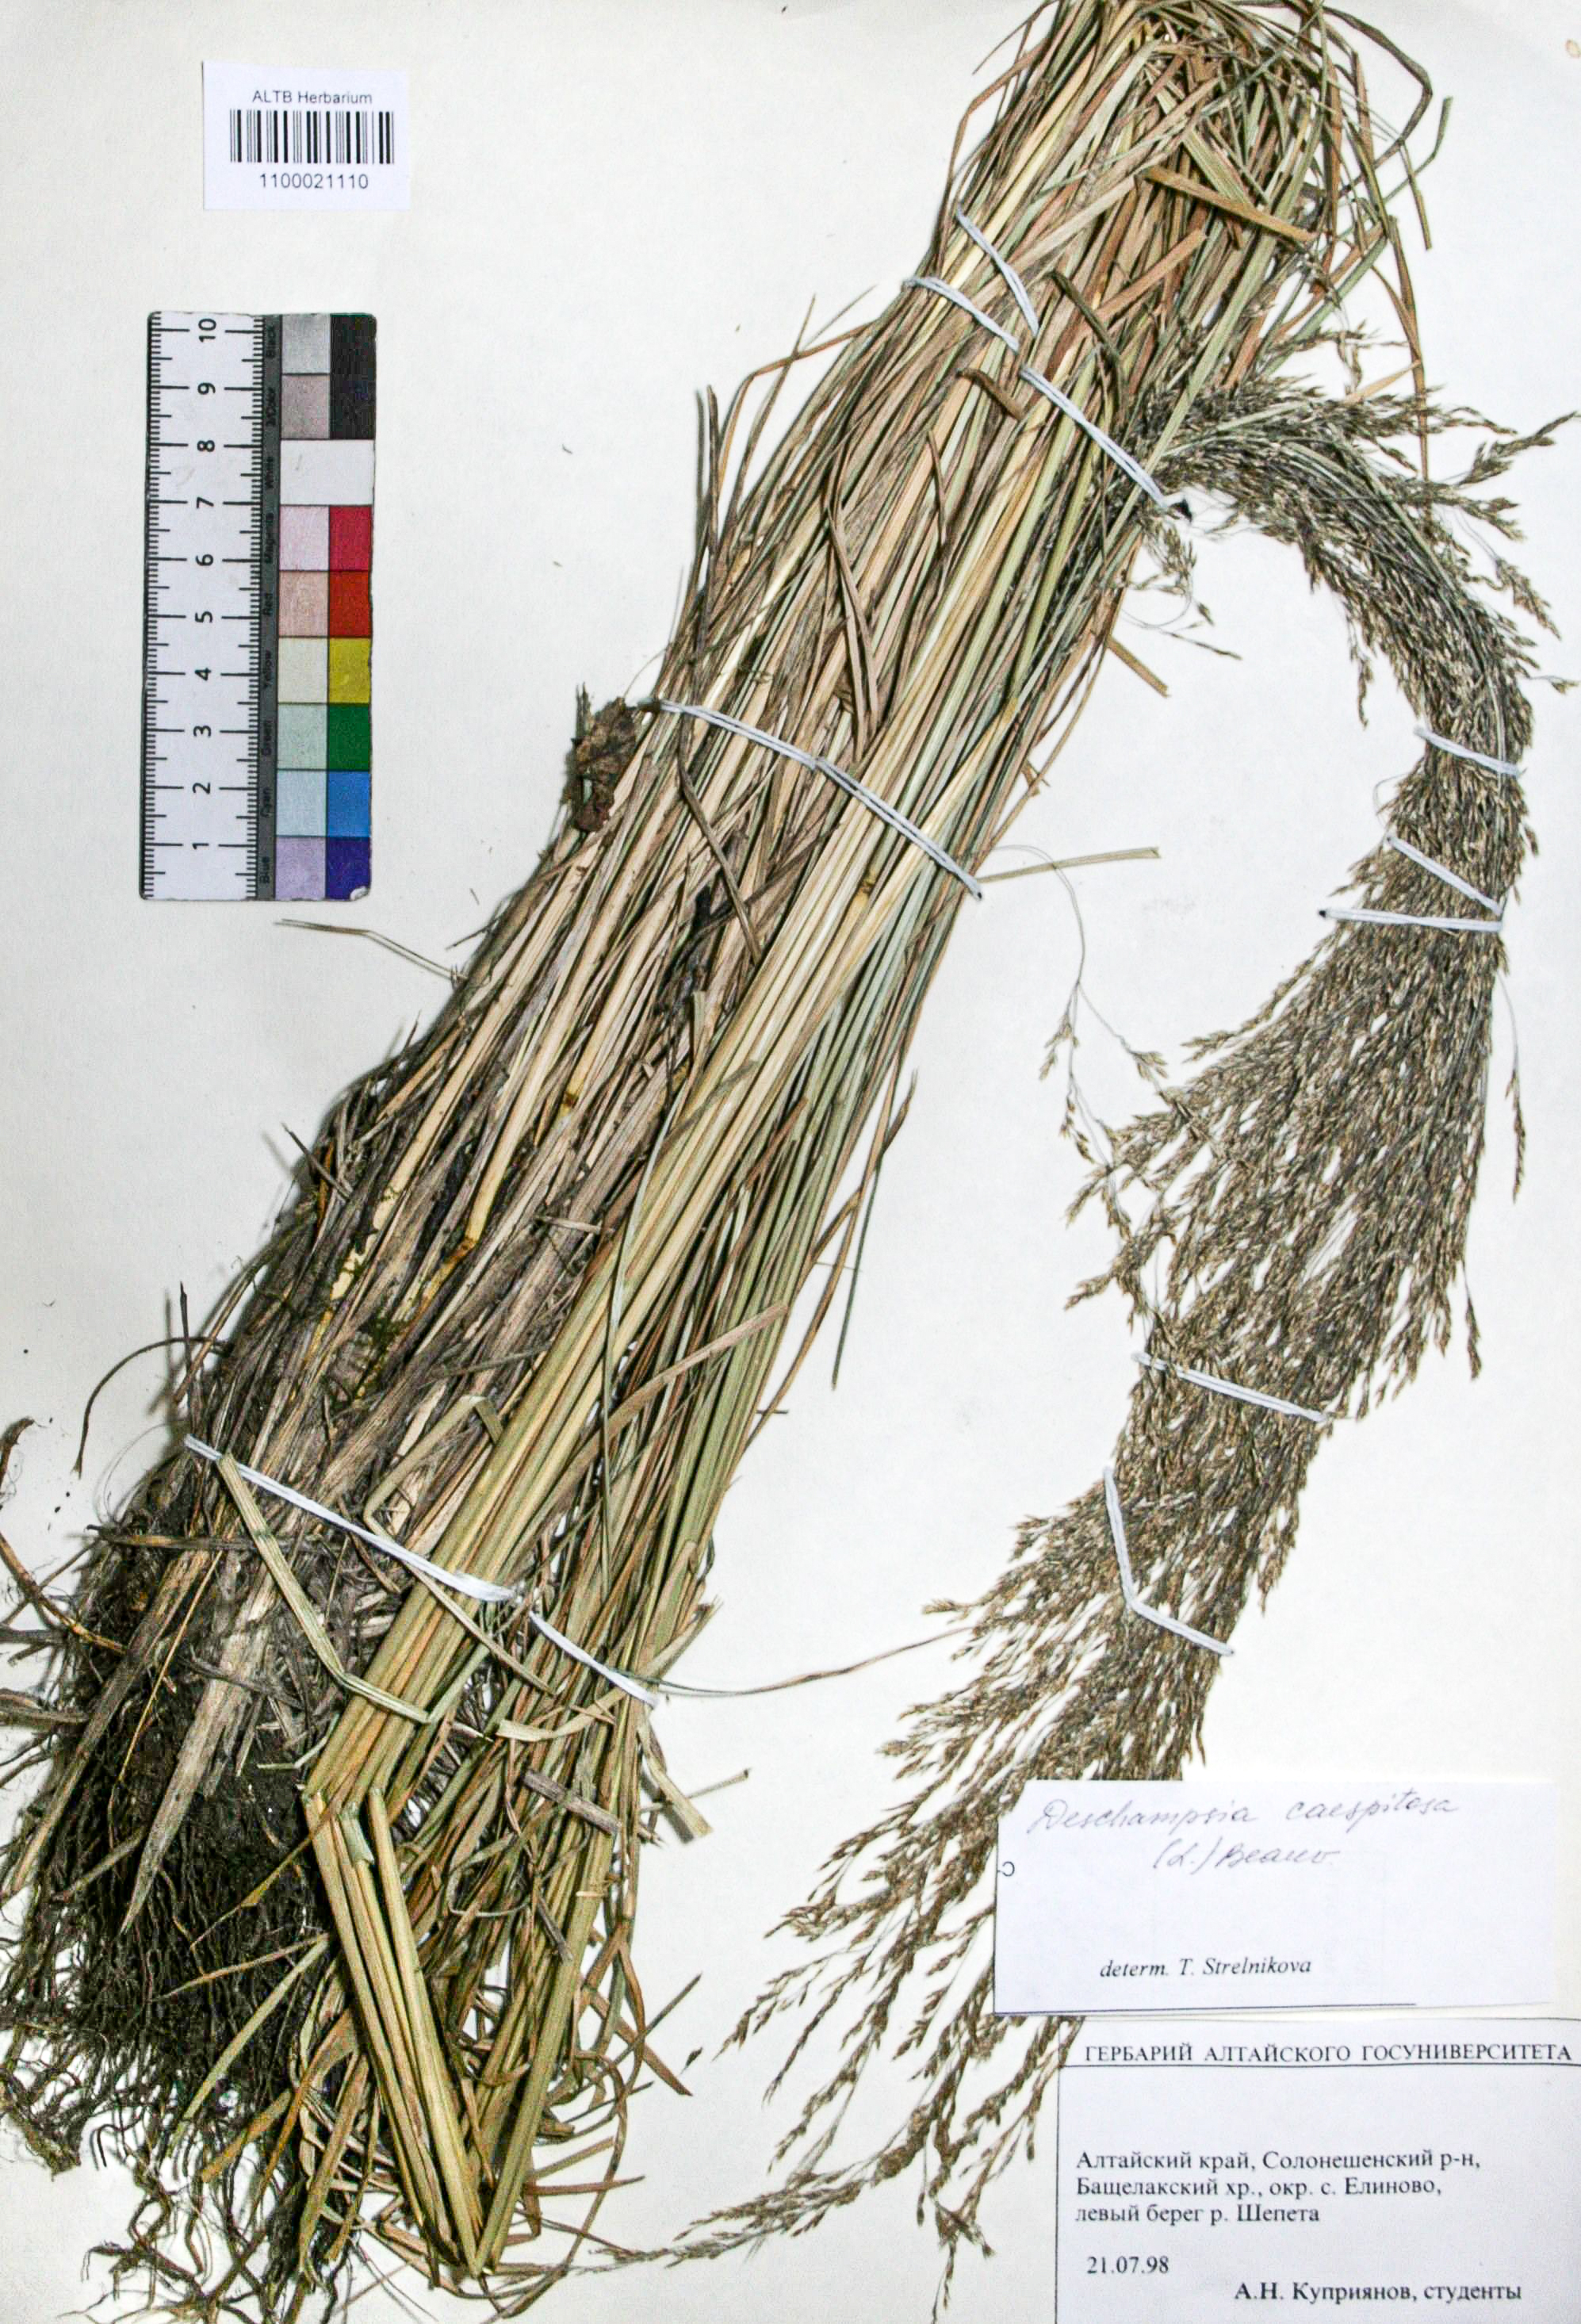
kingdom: Plantae
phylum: Tracheophyta
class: Liliopsida
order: Poales
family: Poaceae
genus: Deschampsia
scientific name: Deschampsia cespitosa
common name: Tufted hair-grass
